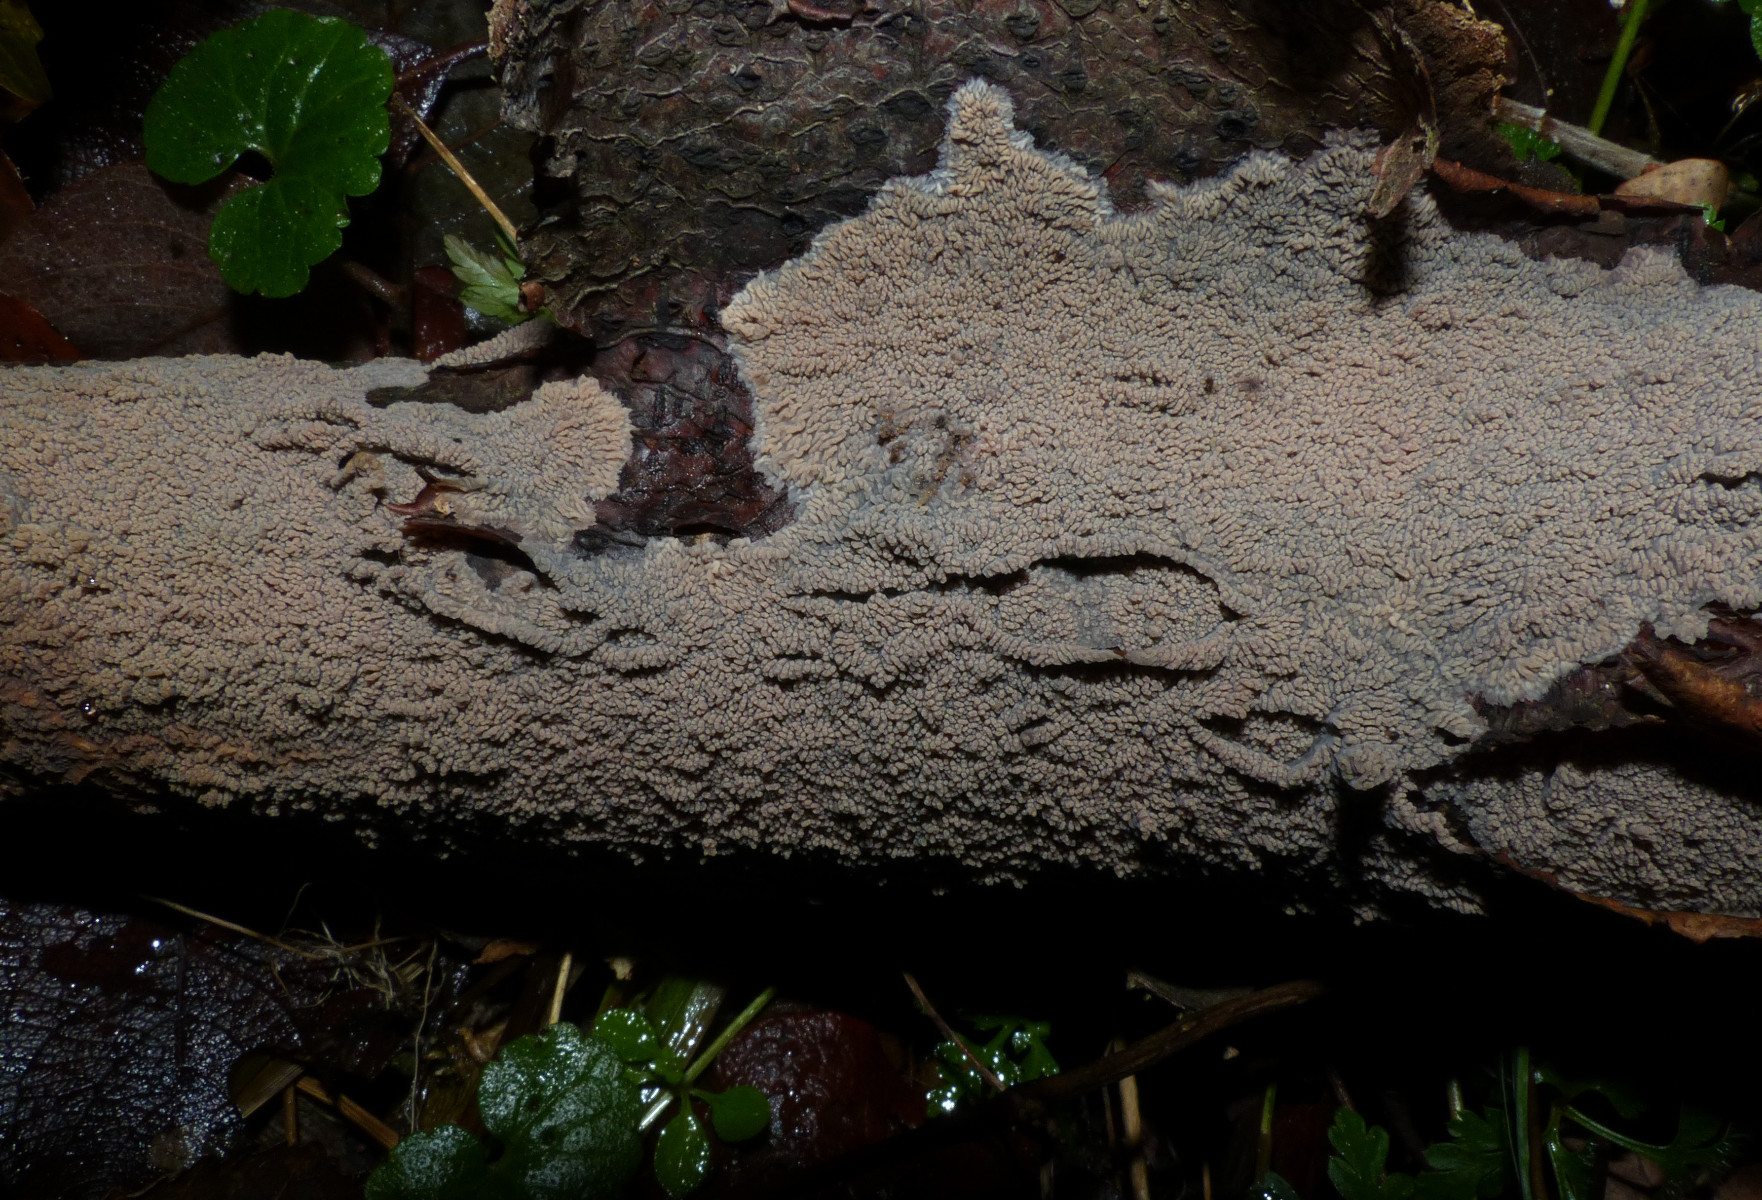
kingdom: Fungi
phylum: Basidiomycota
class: Agaricomycetes
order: Polyporales
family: Meruliaceae
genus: Phlebia
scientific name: Phlebia radiata
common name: stråle-åresvamp
